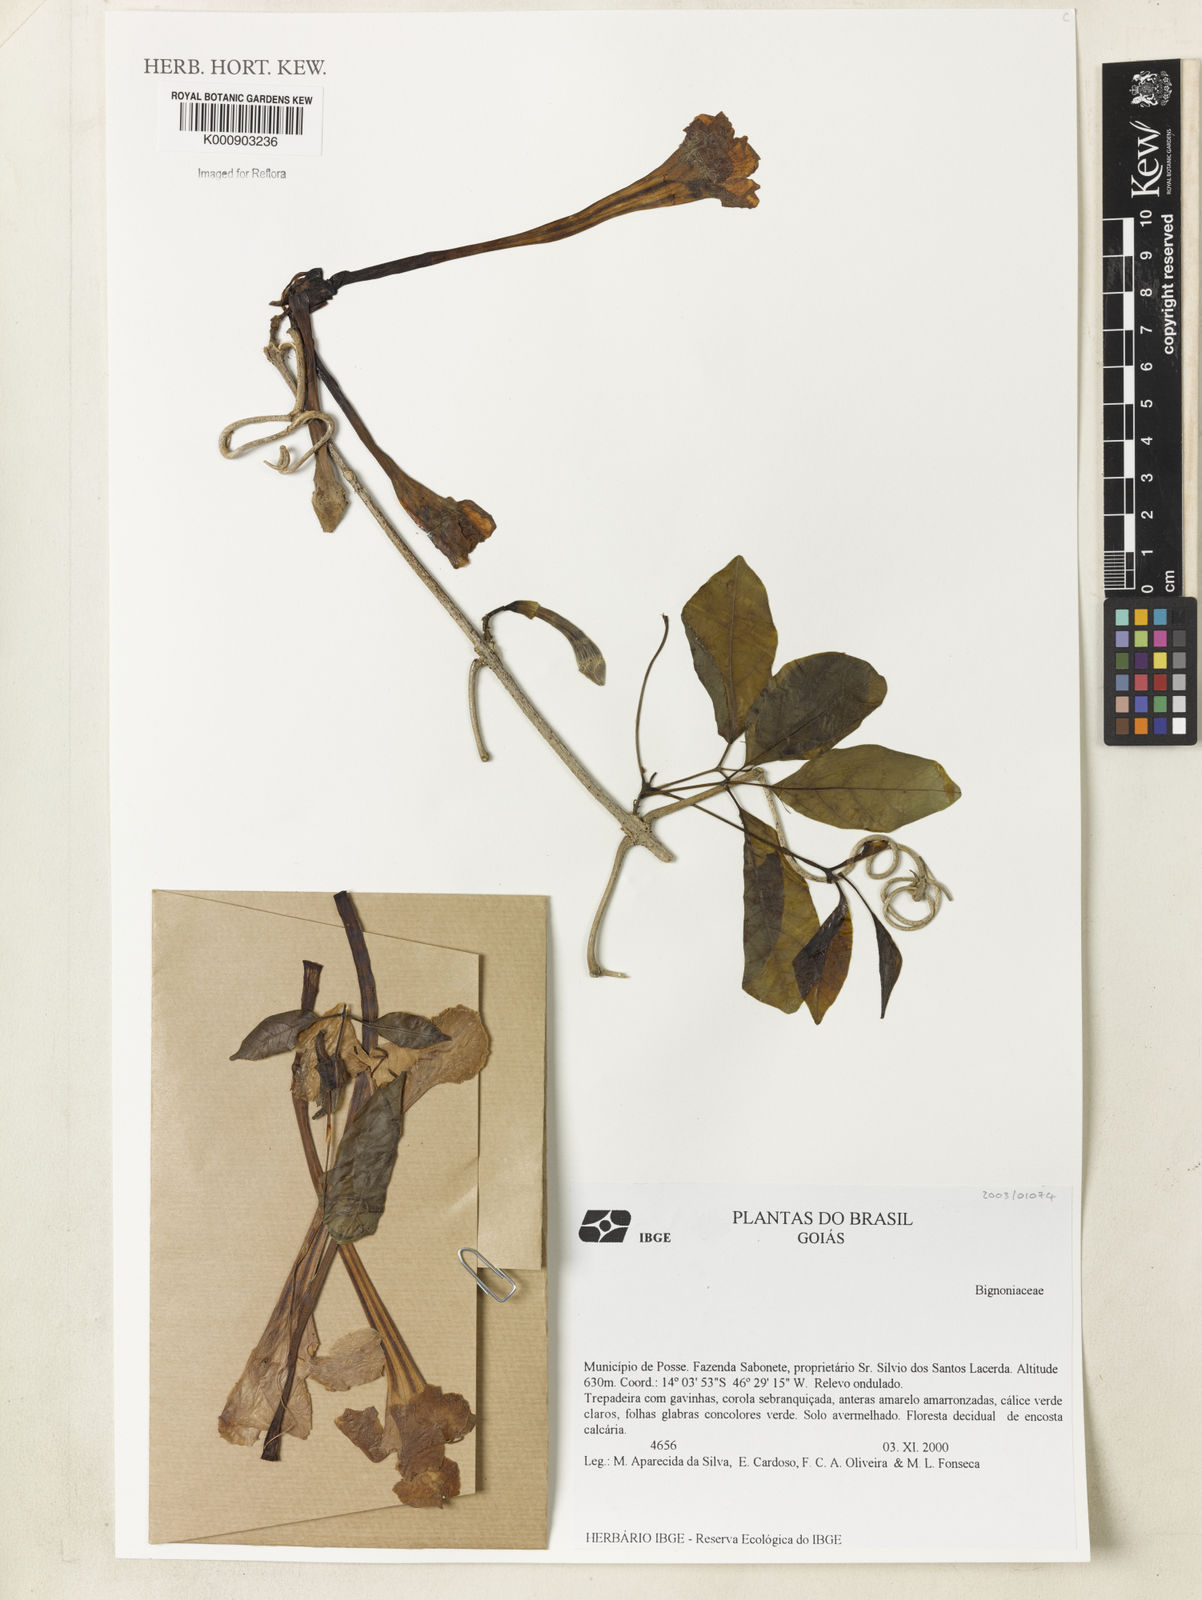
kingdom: Plantae
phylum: Tracheophyta
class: Magnoliopsida
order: Lamiales
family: Bignoniaceae
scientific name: Bignoniaceae
